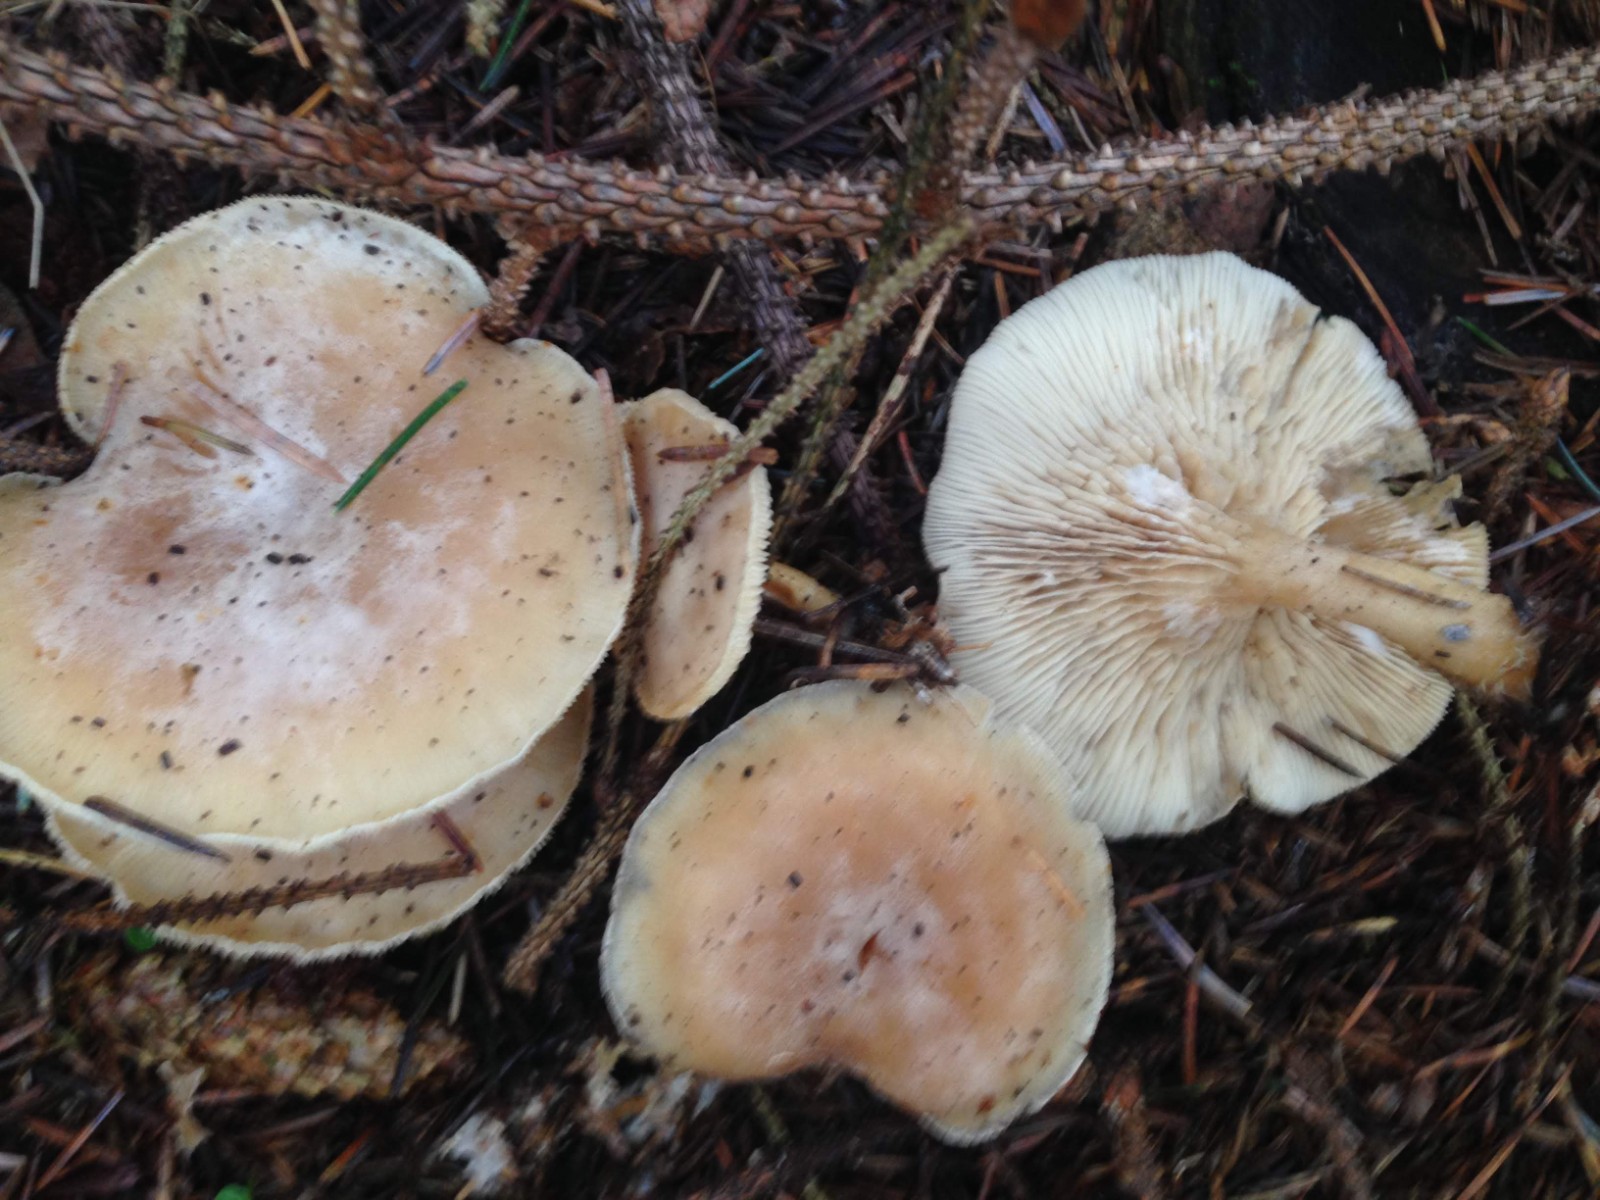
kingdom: Fungi
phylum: Basidiomycota
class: Agaricomycetes
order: Agaricales
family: Tricholomataceae
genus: Clitocybe
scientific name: Clitocybe metachroa
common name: grå tragthat
